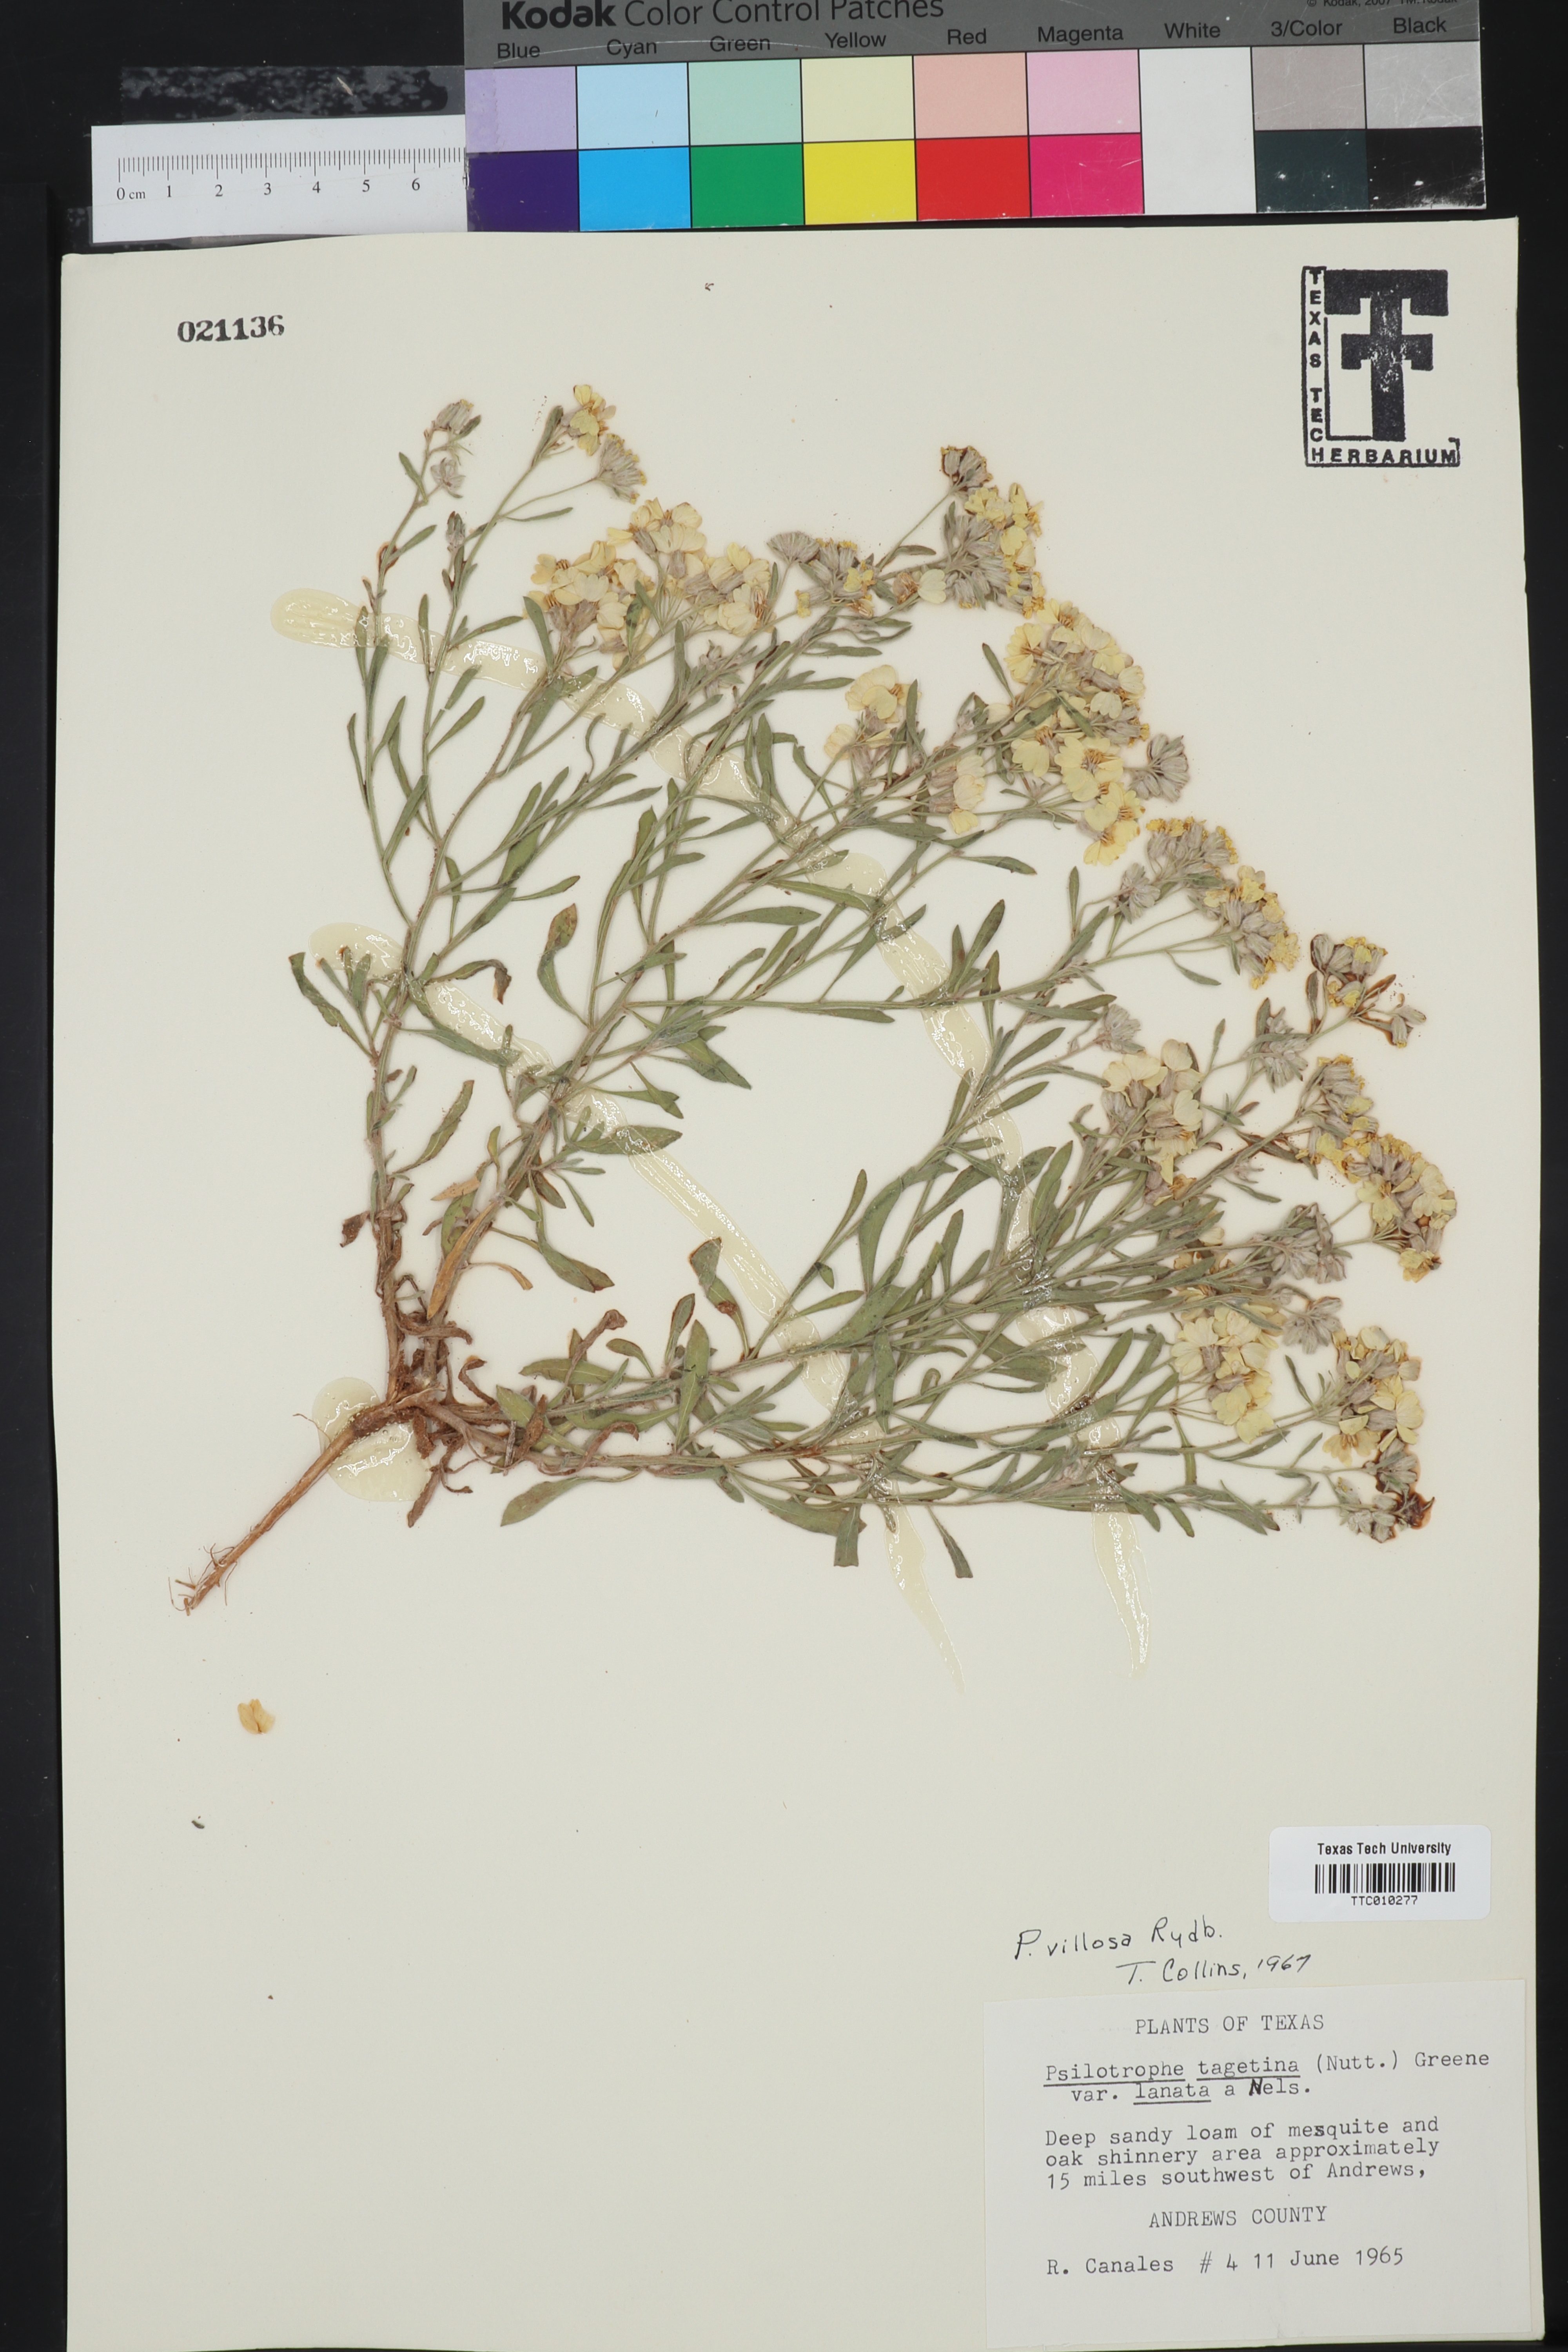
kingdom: Plantae
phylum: Tracheophyta
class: Magnoliopsida
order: Asterales
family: Asteraceae
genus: Psilostrophe
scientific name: Psilostrophe villosa
